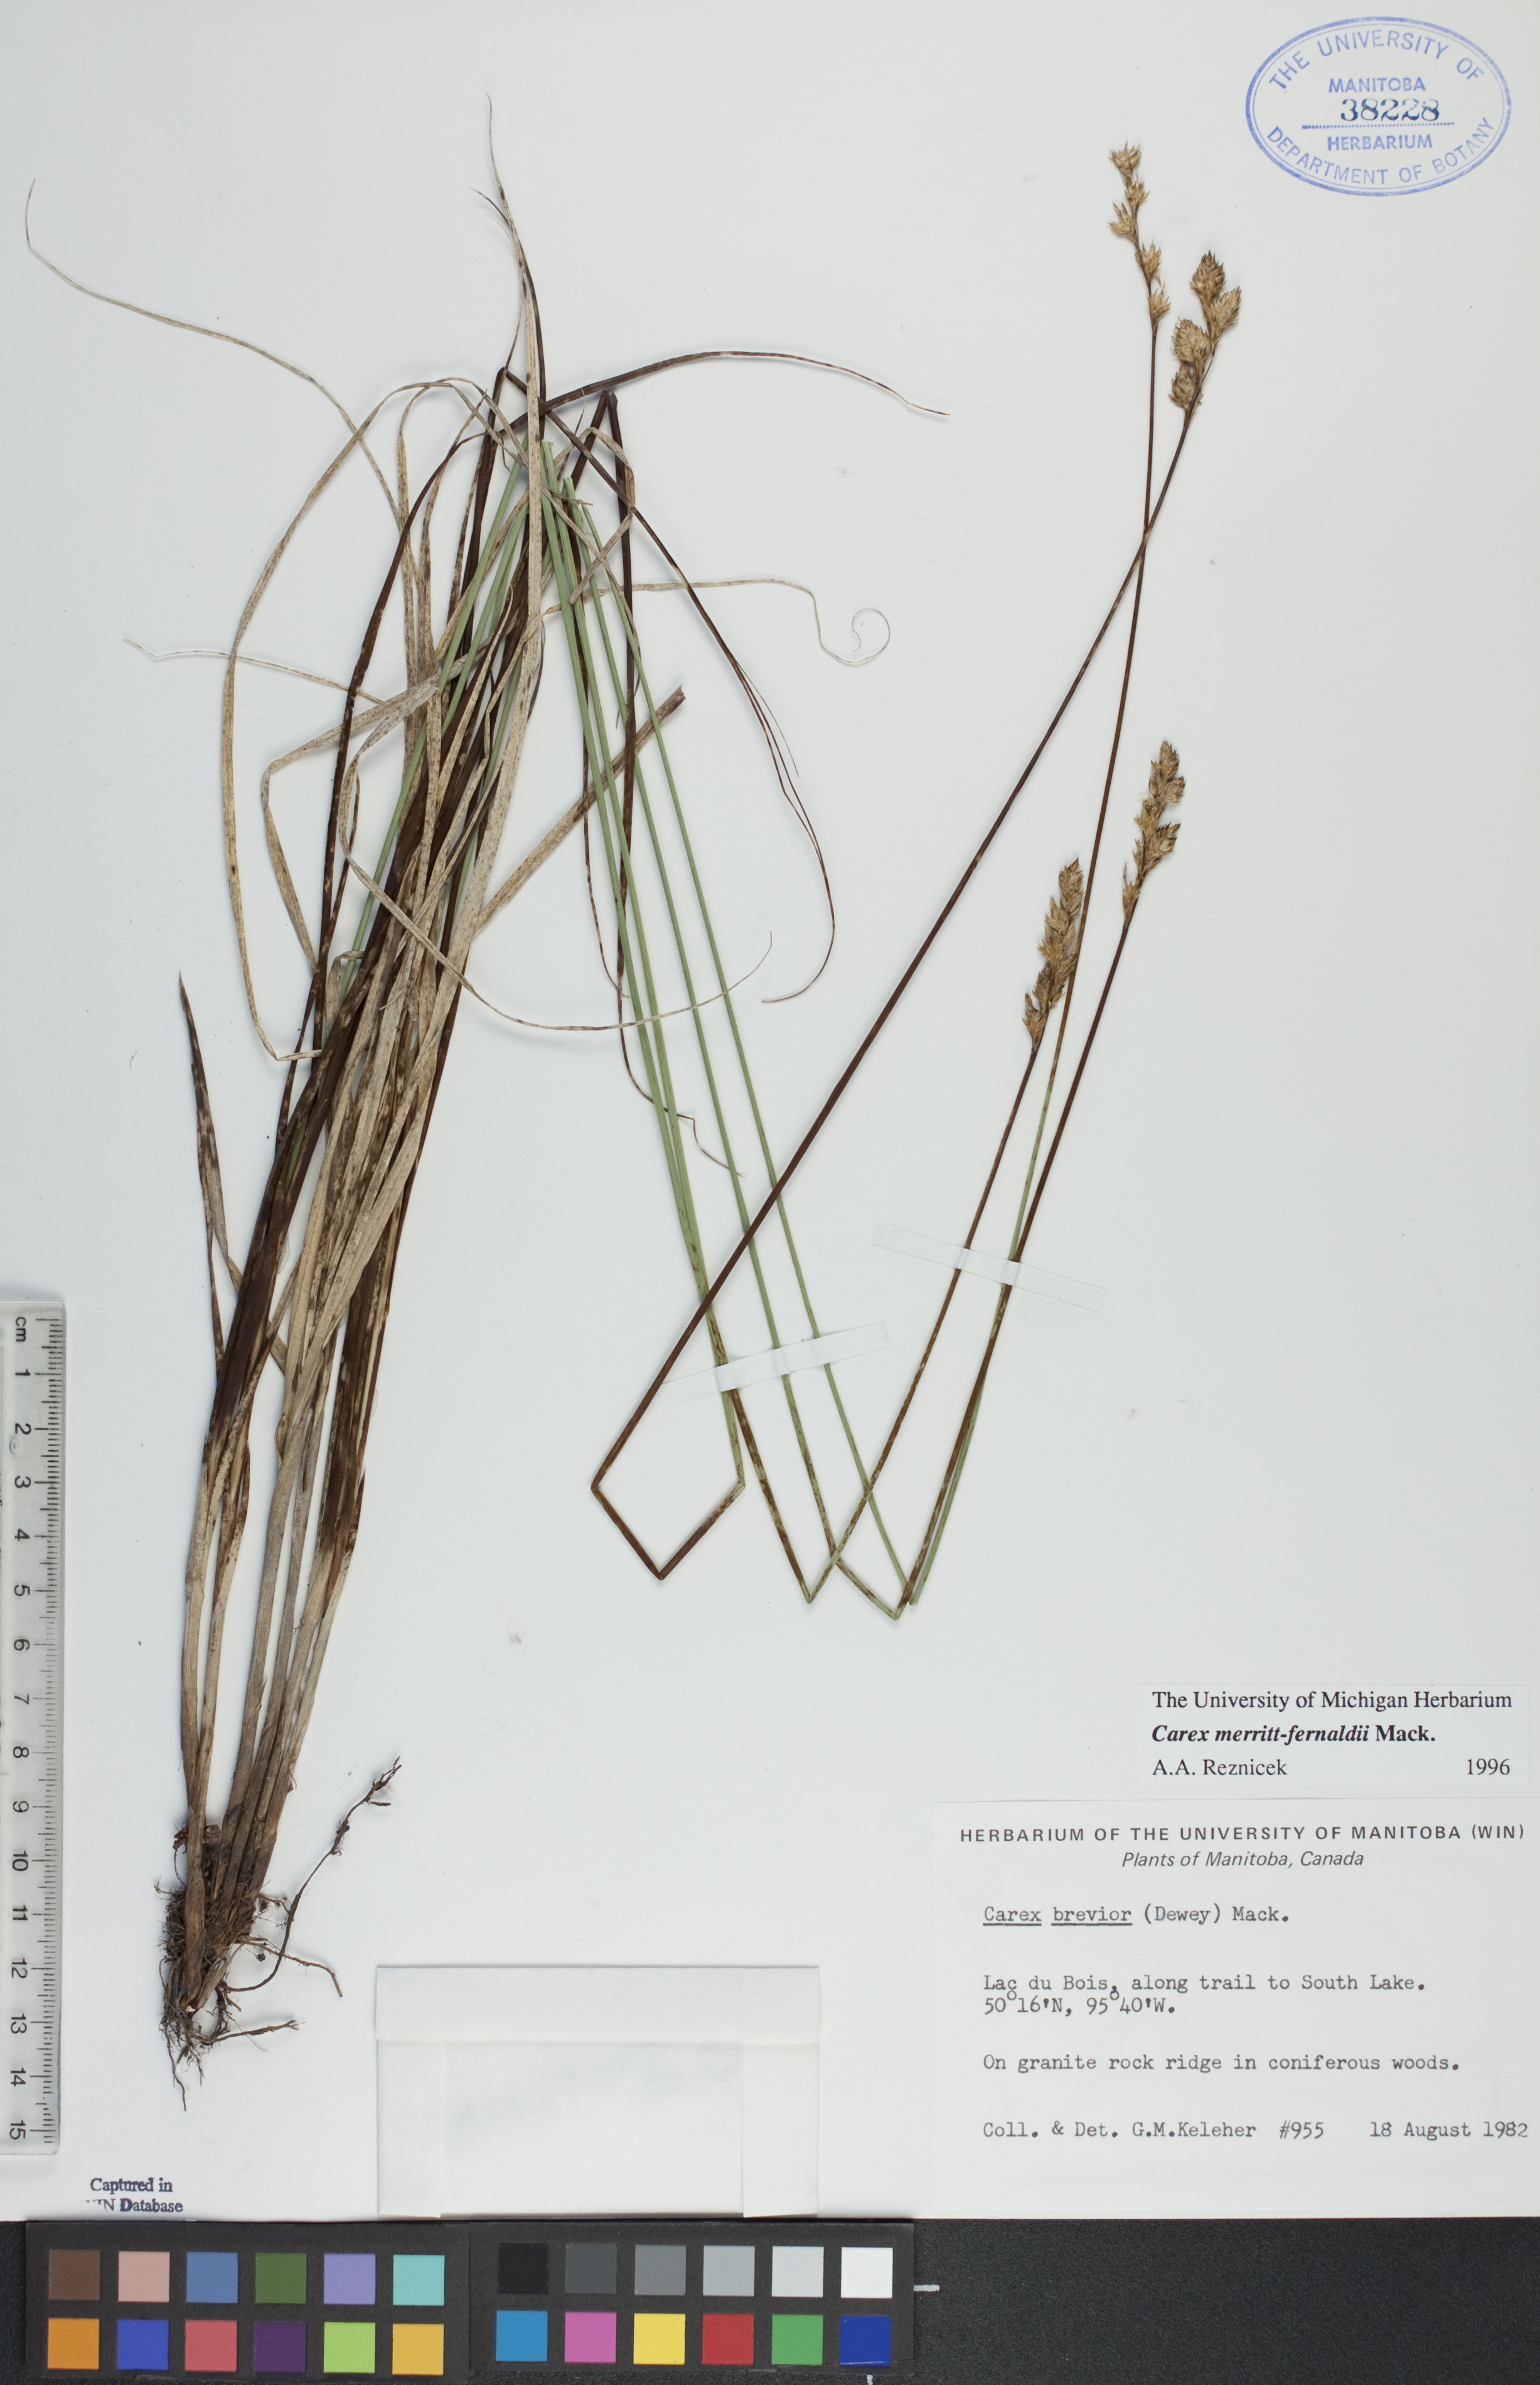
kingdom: Plantae
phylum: Tracheophyta
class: Liliopsida
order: Poales
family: Cyperaceae
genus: Carex
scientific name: Carex merritt-fernaldii
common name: Fernald's oval sedge
